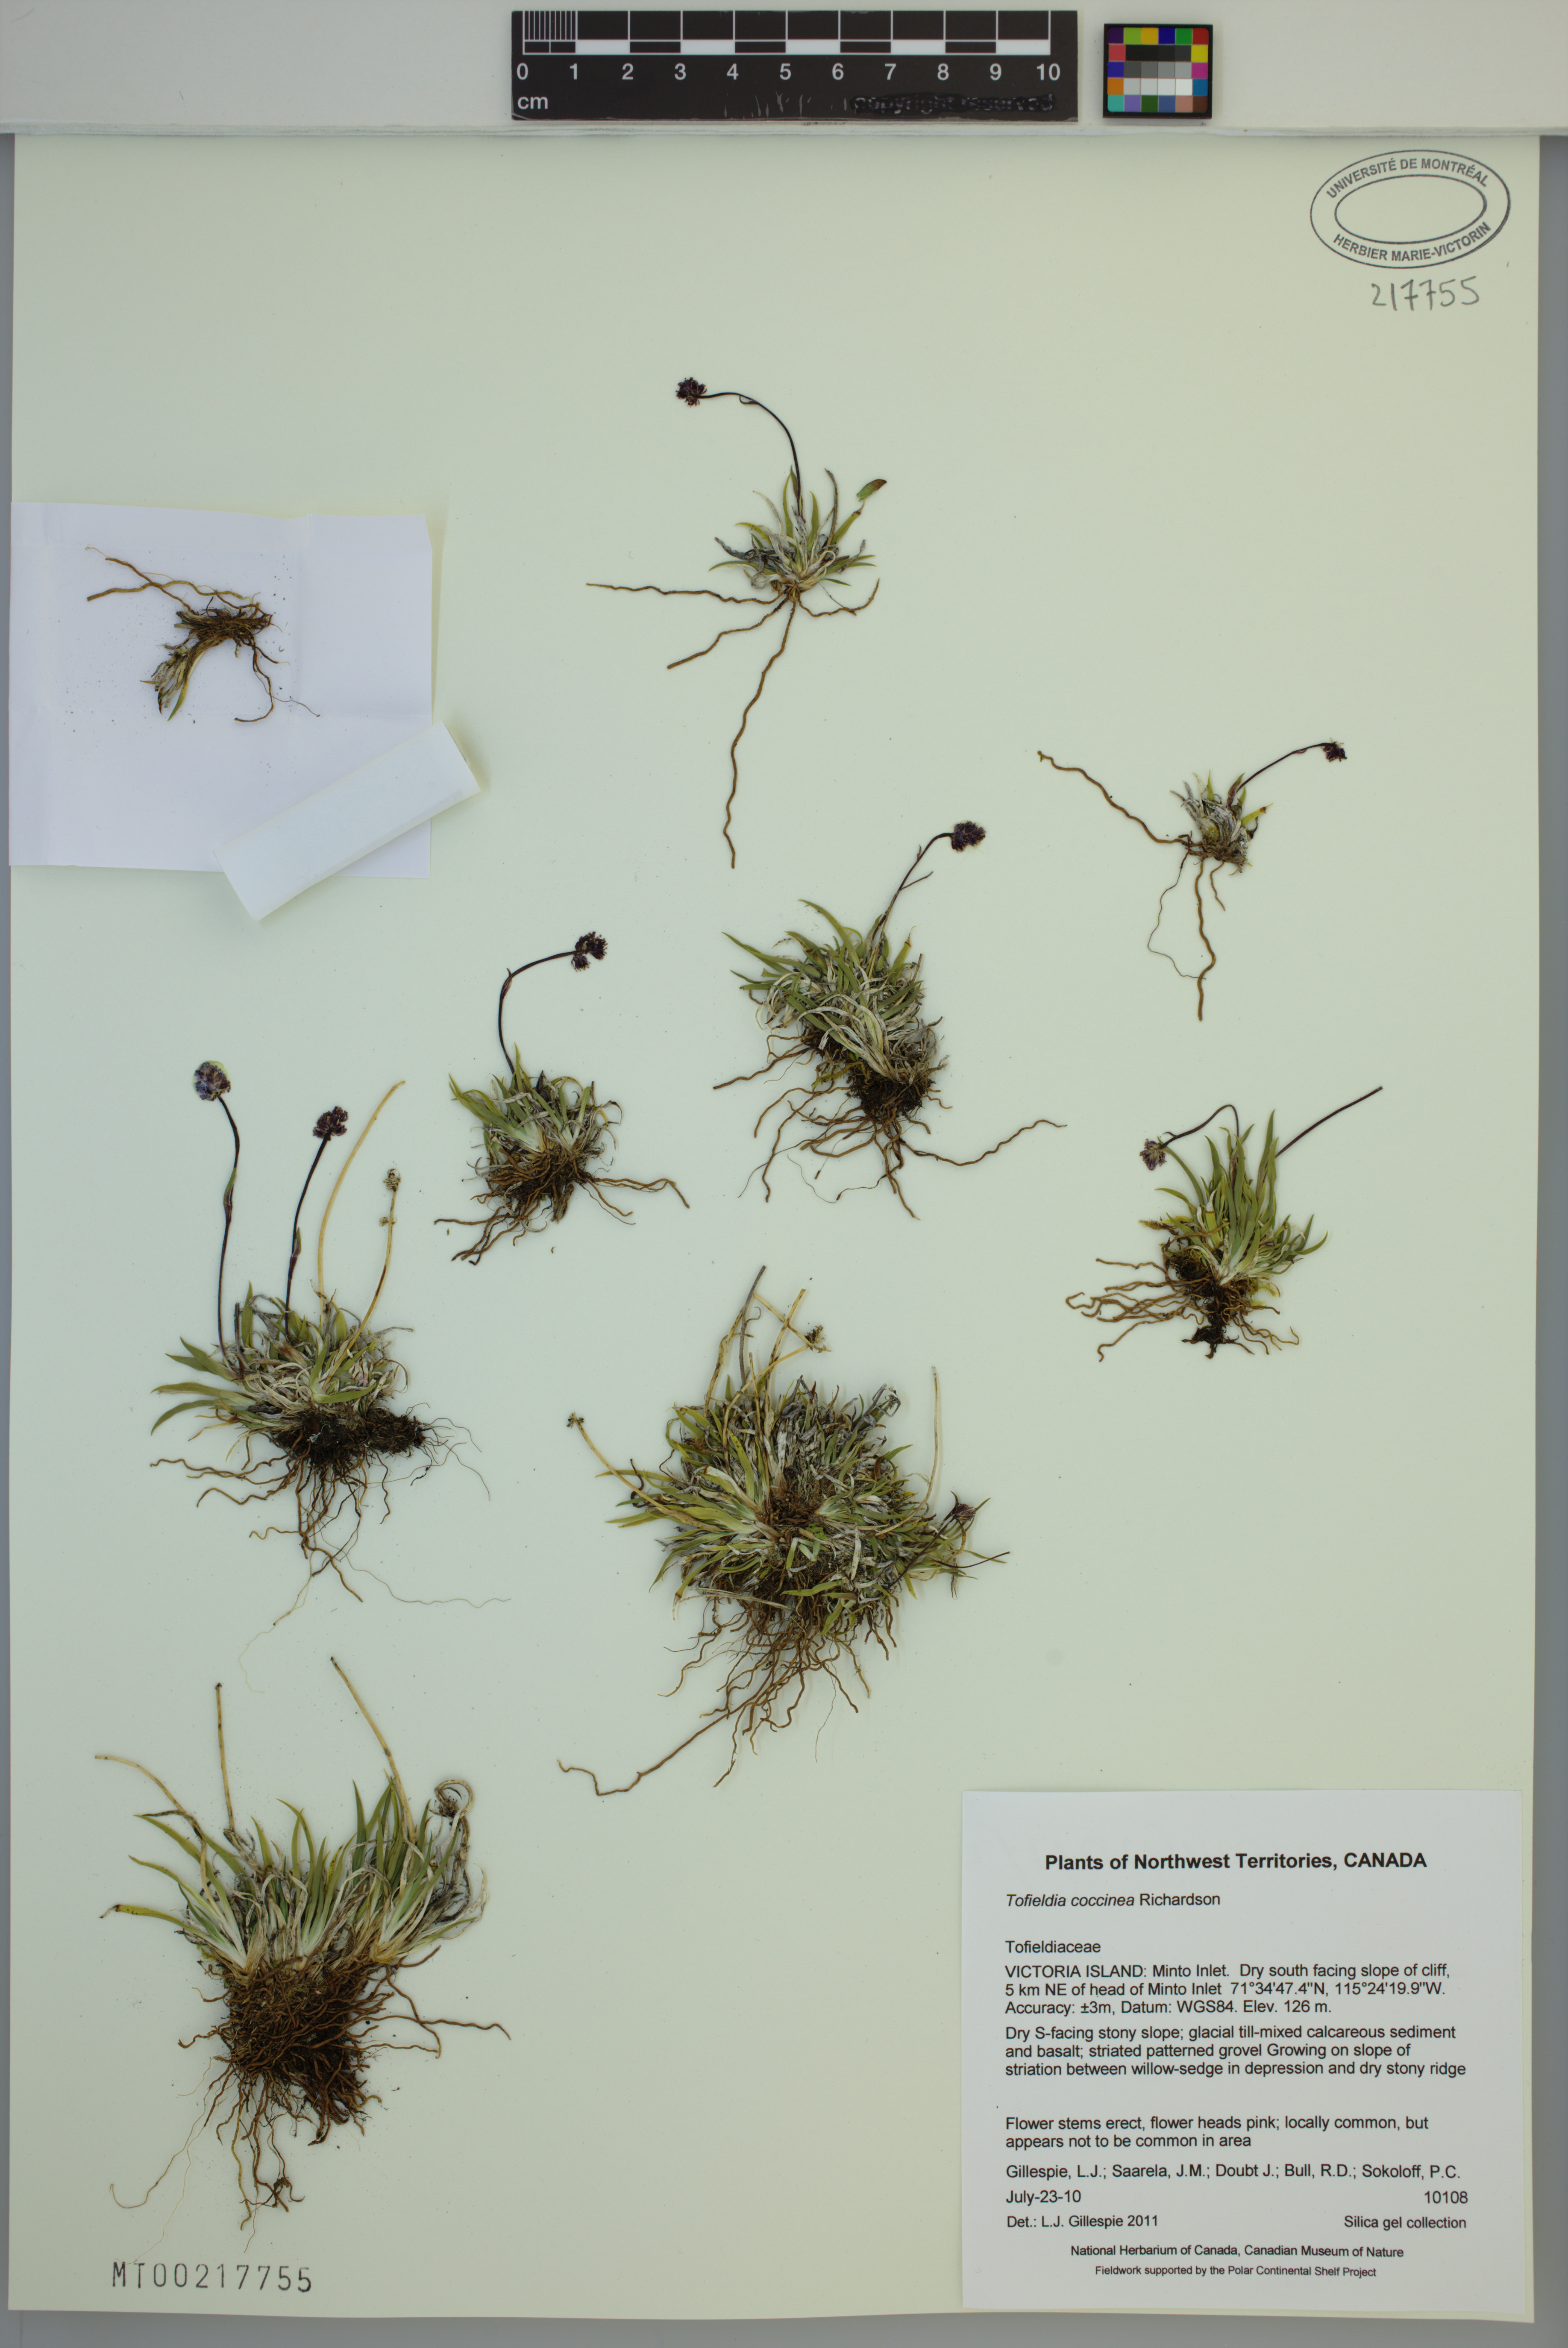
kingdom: Plantae
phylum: Tracheophyta
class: Liliopsida
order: Alismatales
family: Tofieldiaceae
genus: Tofieldia
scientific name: Tofieldia coccinea
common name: Northern false asphodel
